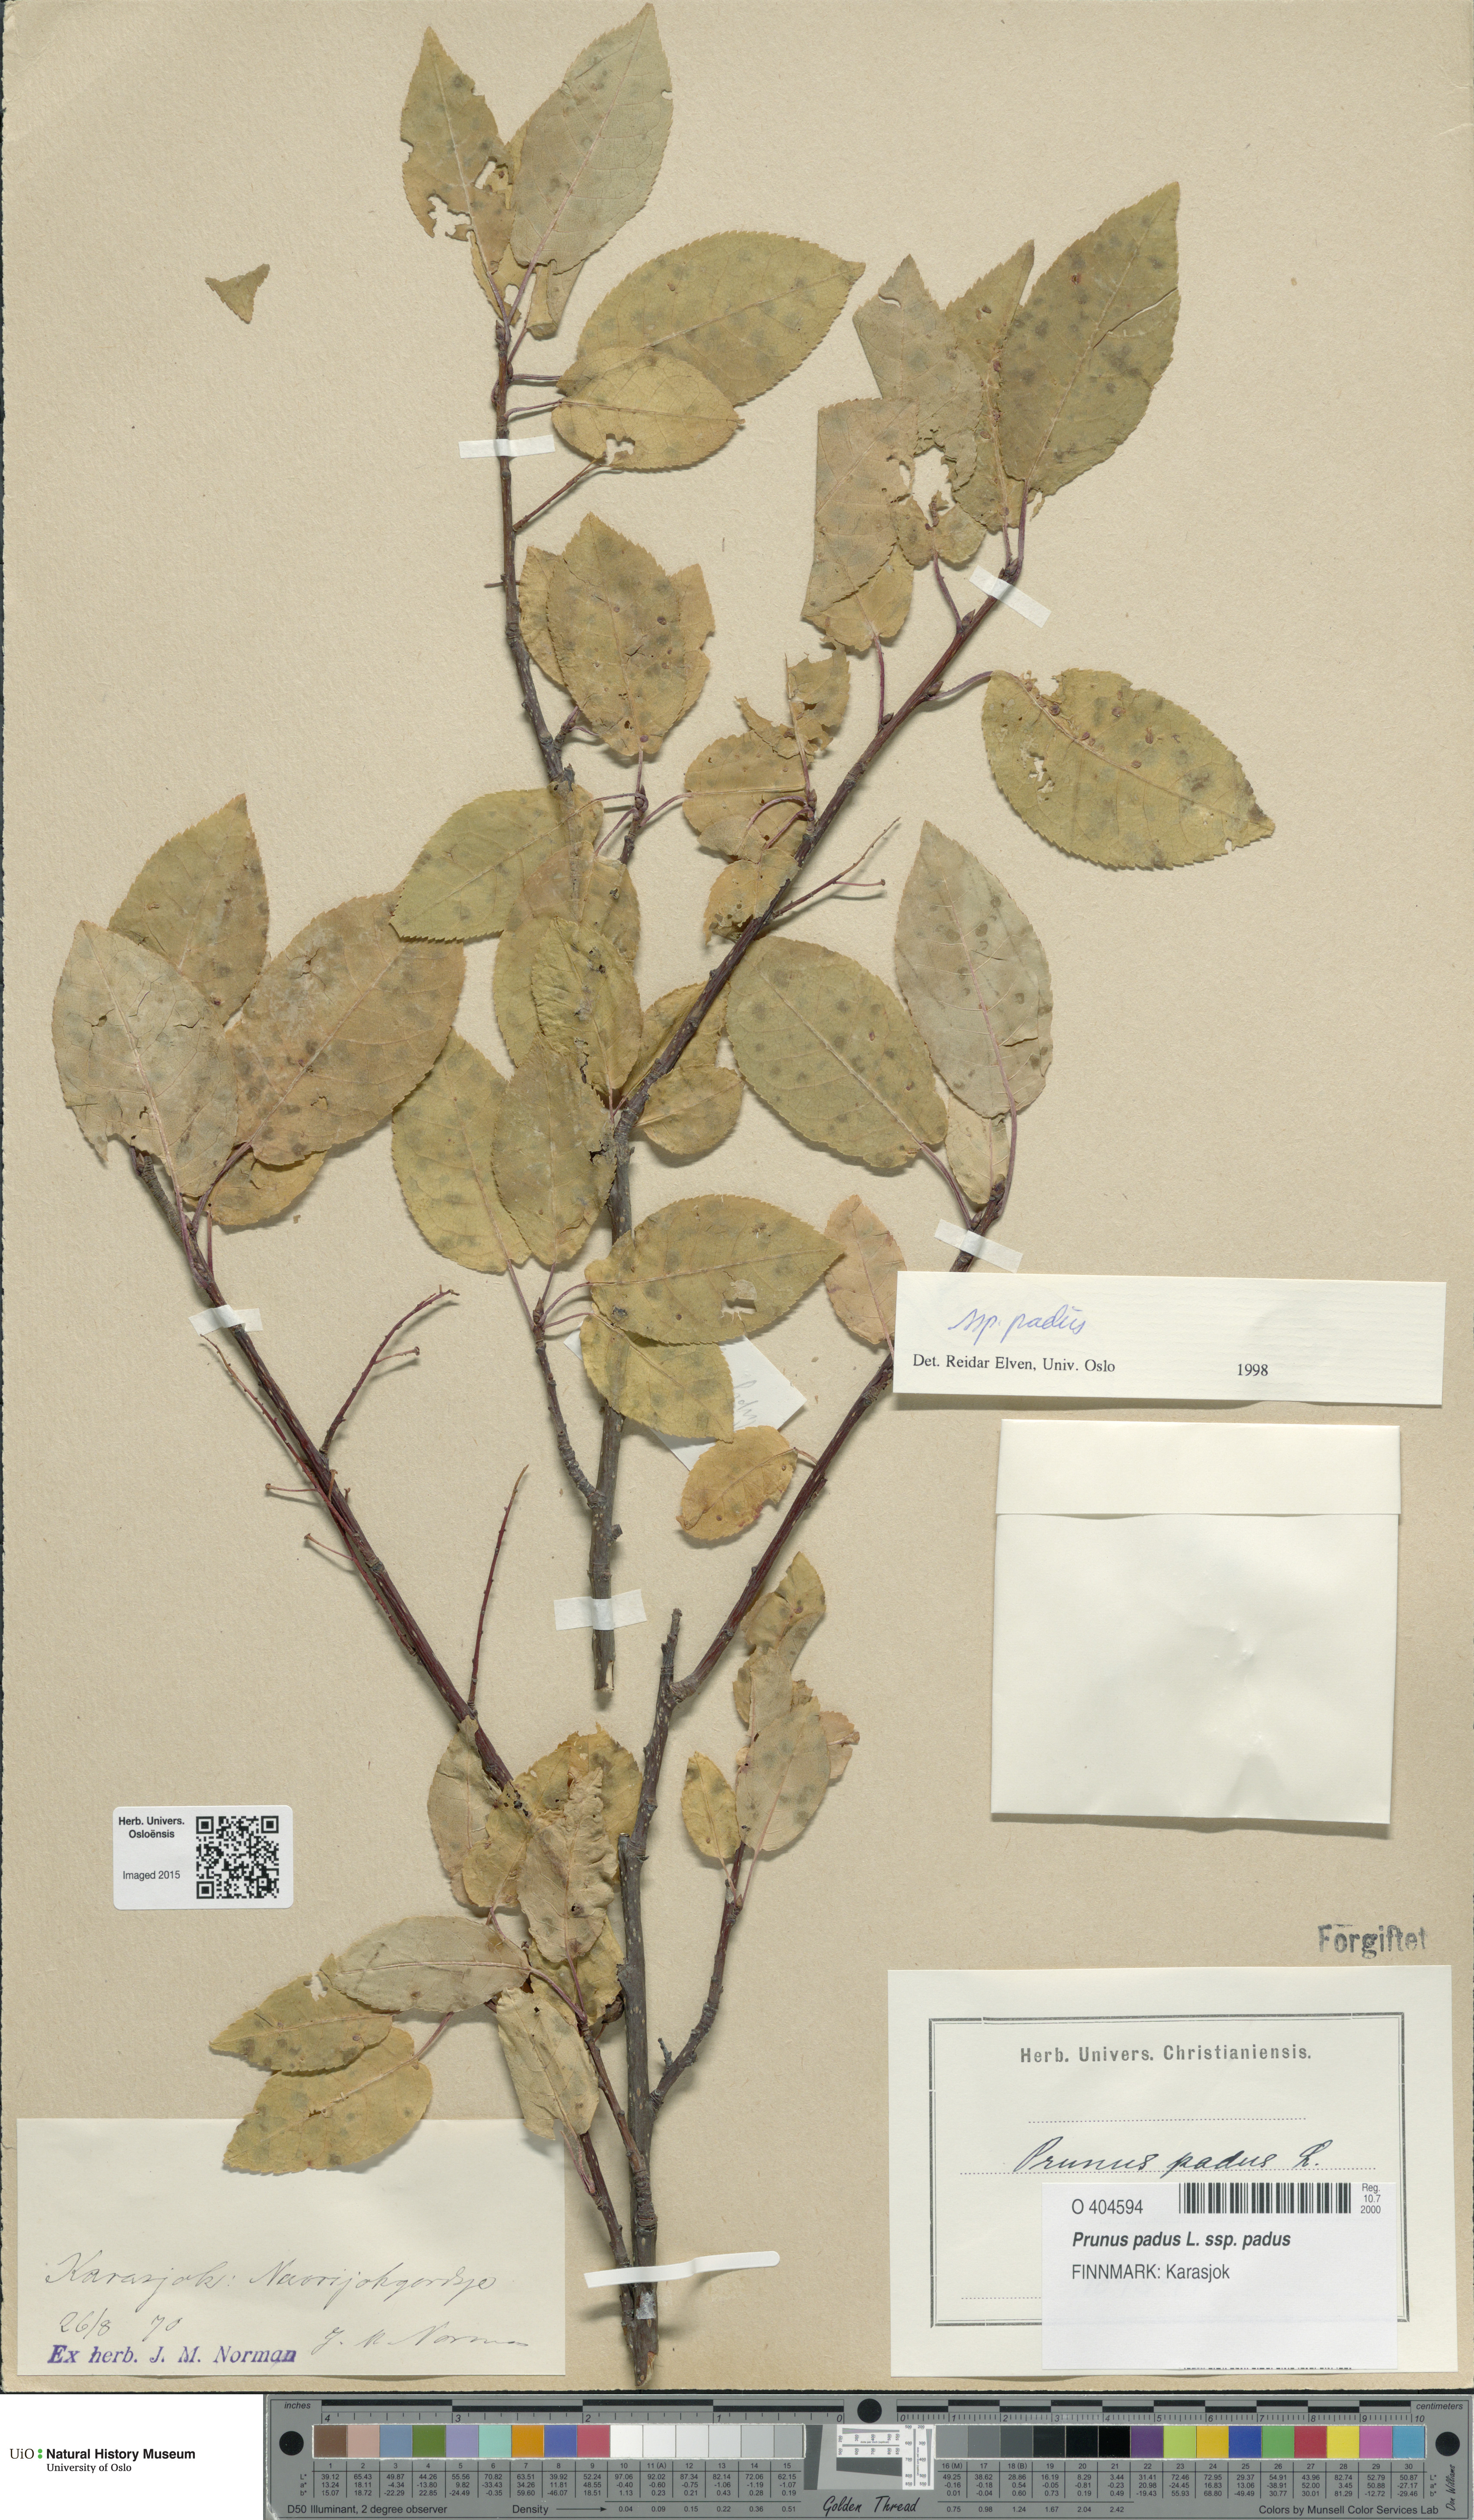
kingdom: Plantae
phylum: Tracheophyta
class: Magnoliopsida
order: Rosales
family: Rosaceae
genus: Prunus
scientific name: Prunus padus
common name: Bird cherry
